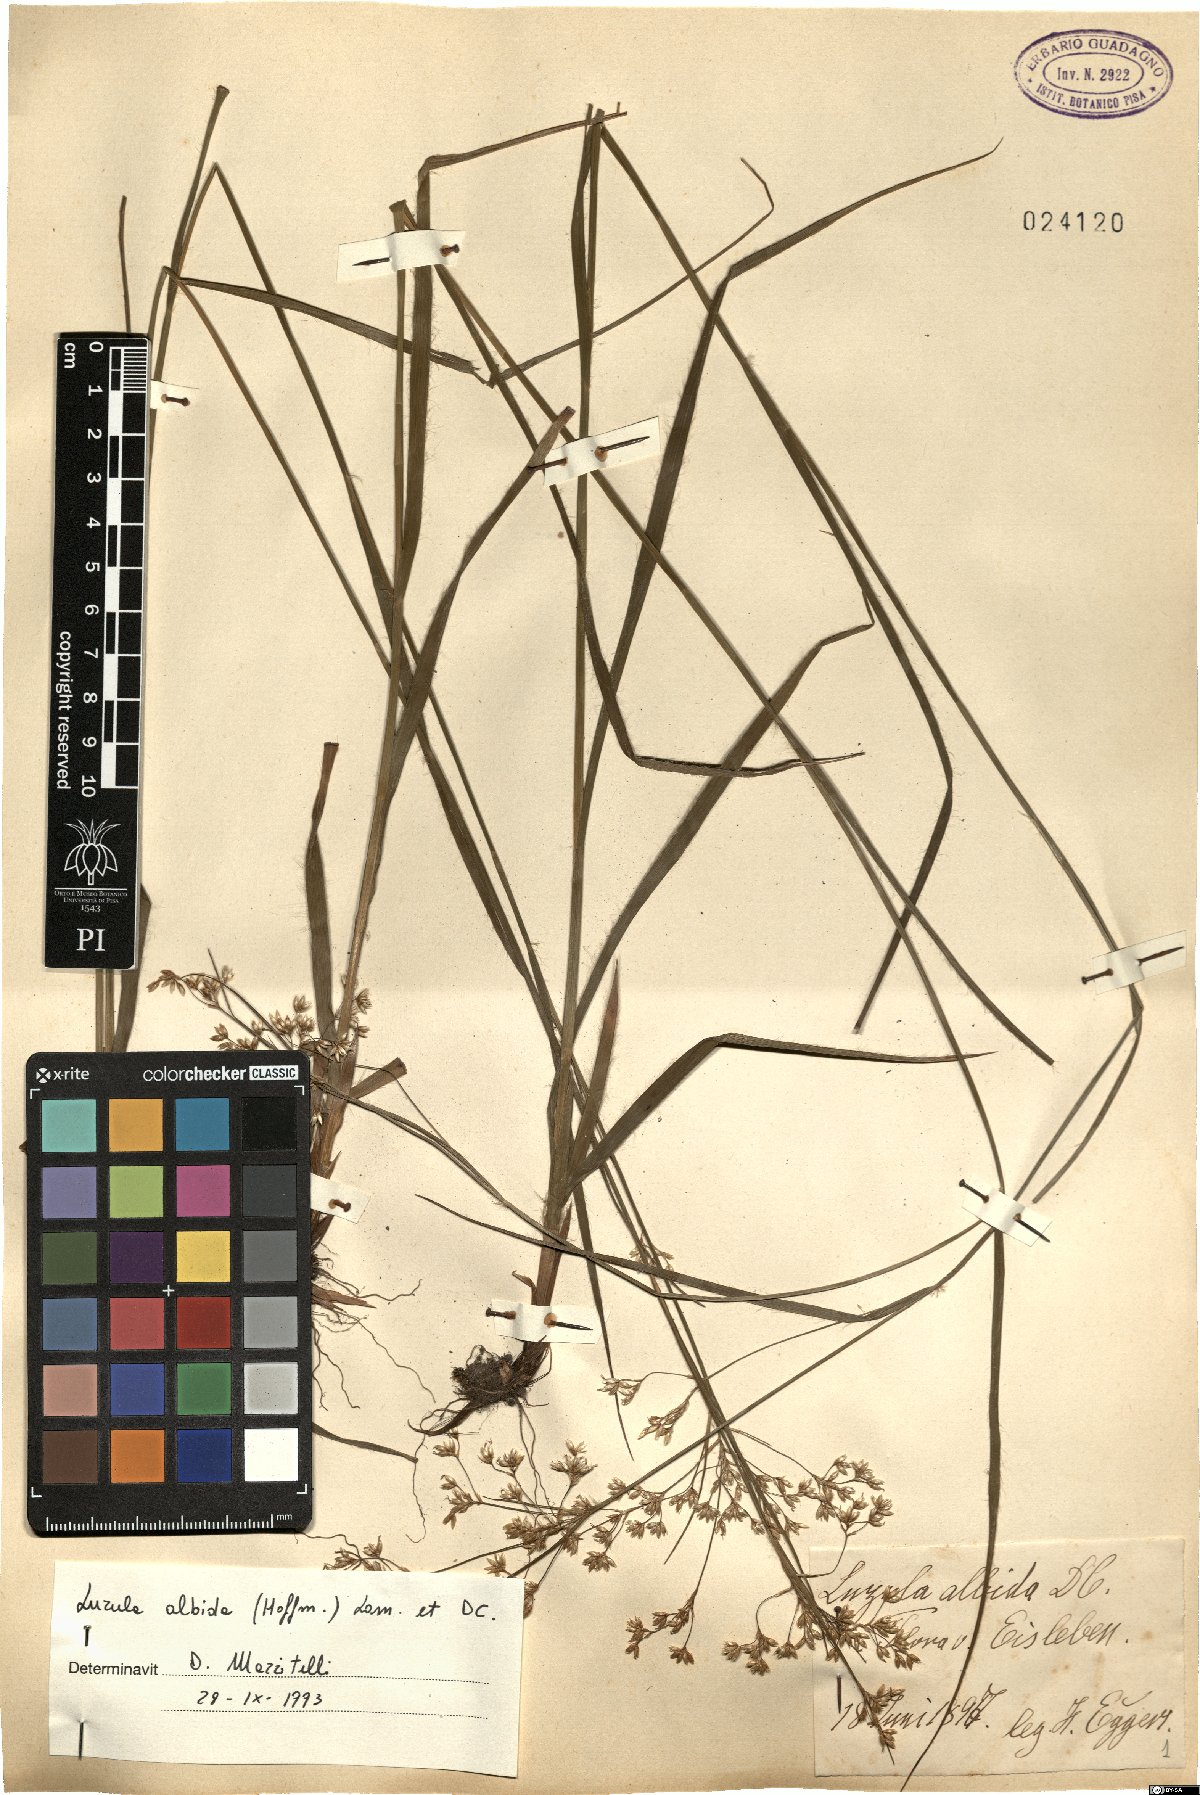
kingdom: Plantae
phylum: Tracheophyta
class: Liliopsida
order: Poales
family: Juncaceae
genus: Luzula
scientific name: Luzula luzuloides
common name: White wood-rush
